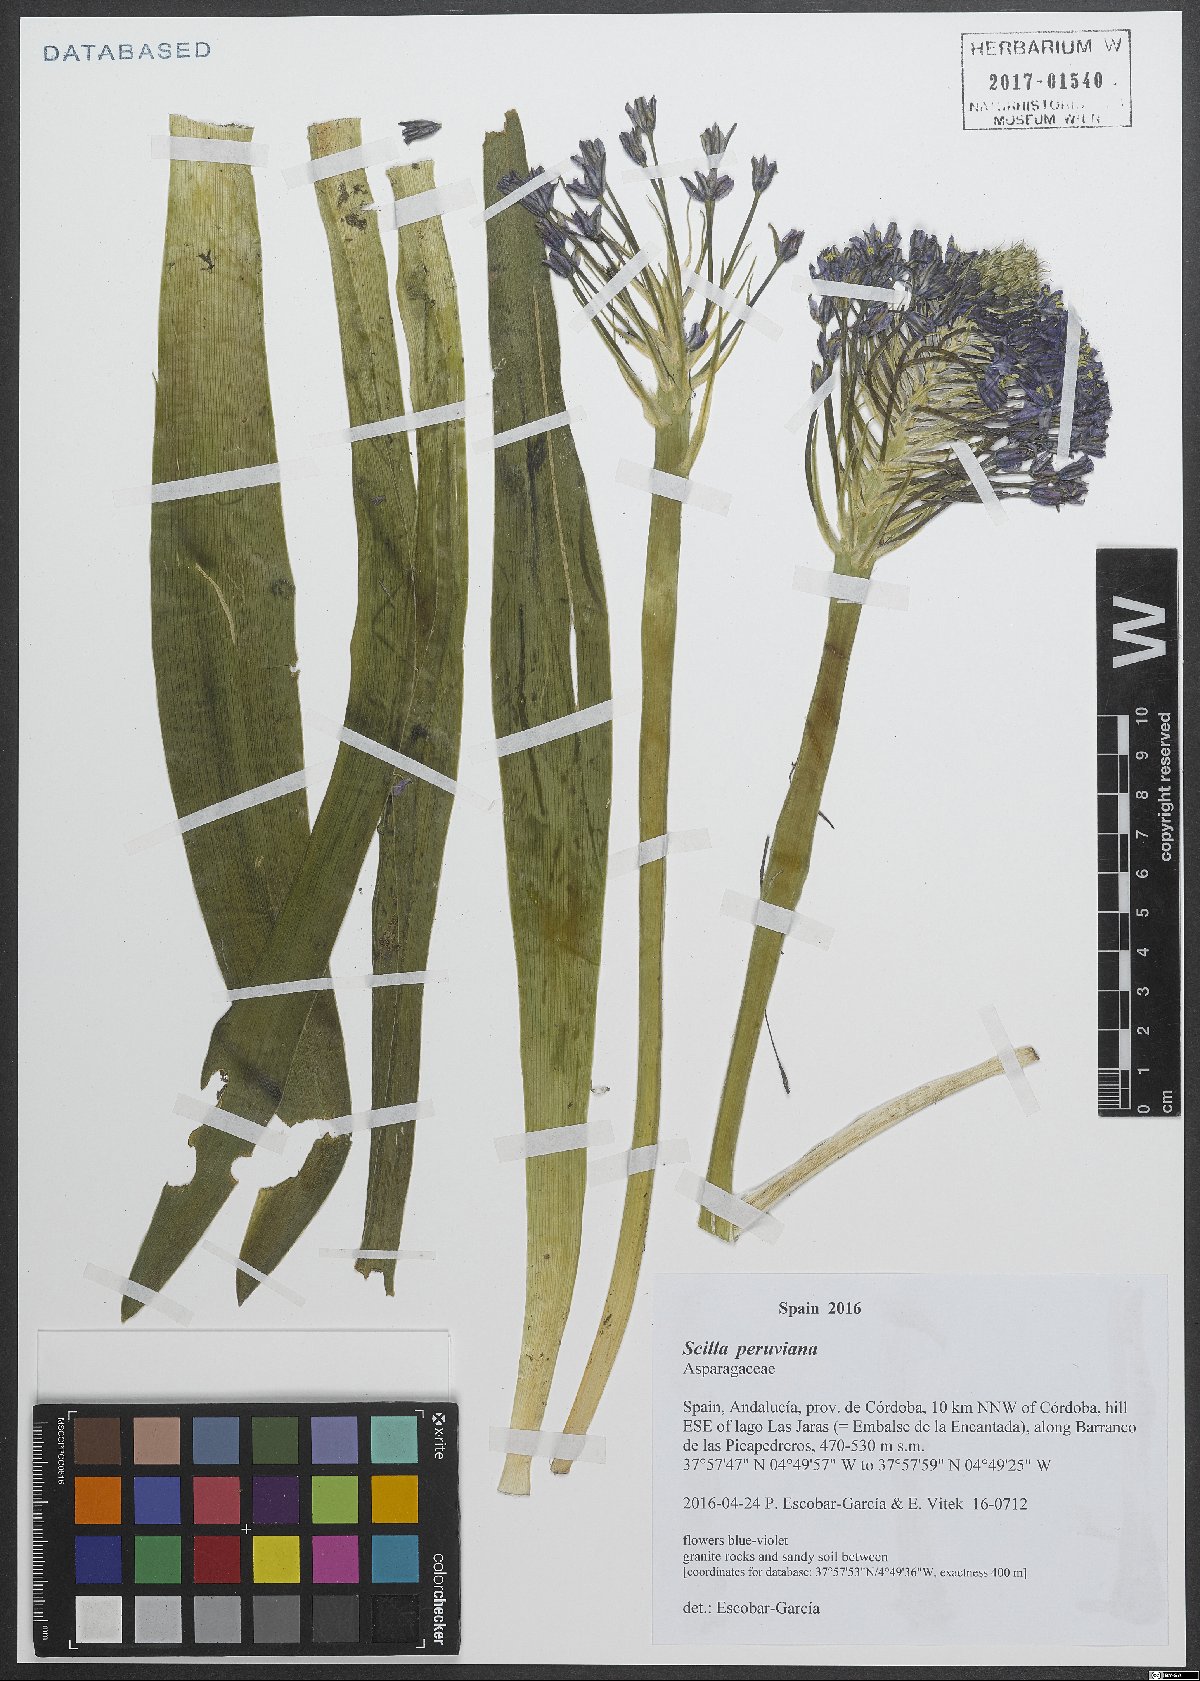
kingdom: Plantae
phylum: Tracheophyta
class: Liliopsida
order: Asparagales
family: Asparagaceae
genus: Scilla
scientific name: Scilla peruviana
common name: Portuguese squill
